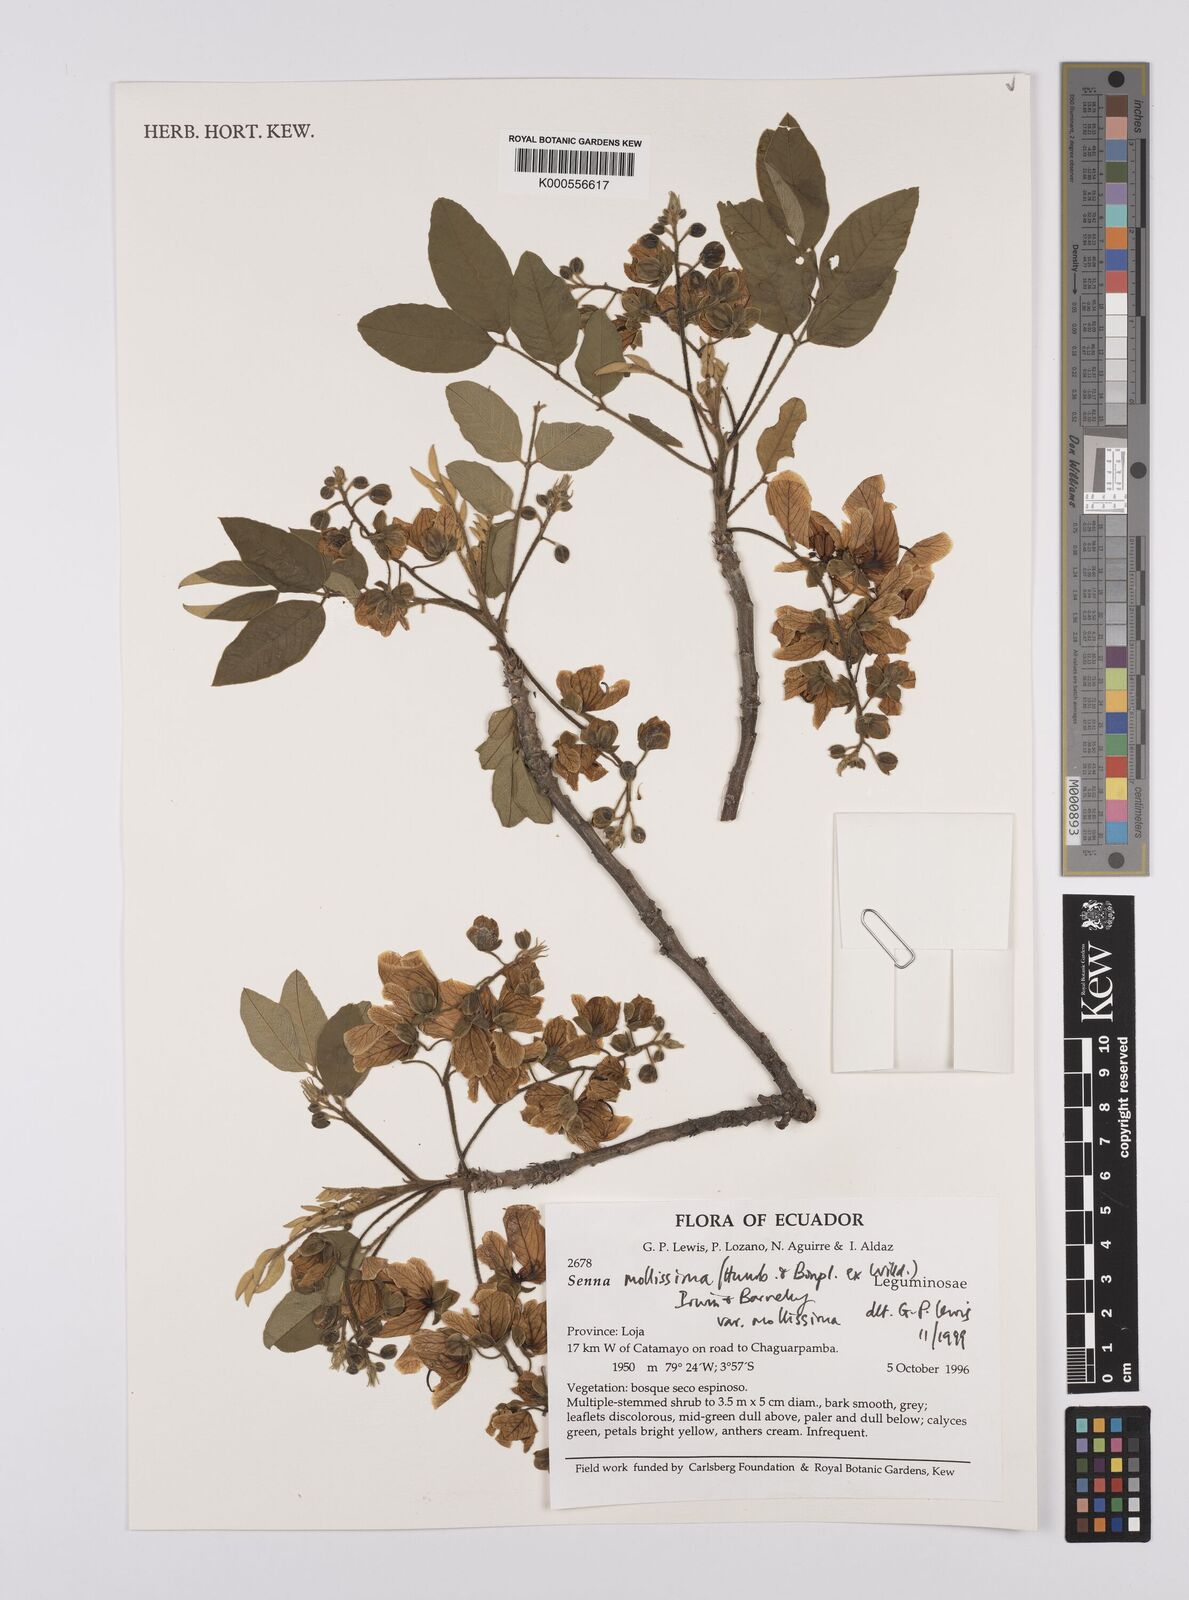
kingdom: Plantae
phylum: Tracheophyta
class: Magnoliopsida
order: Fabales
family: Fabaceae
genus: Senna
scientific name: Senna mollissima
